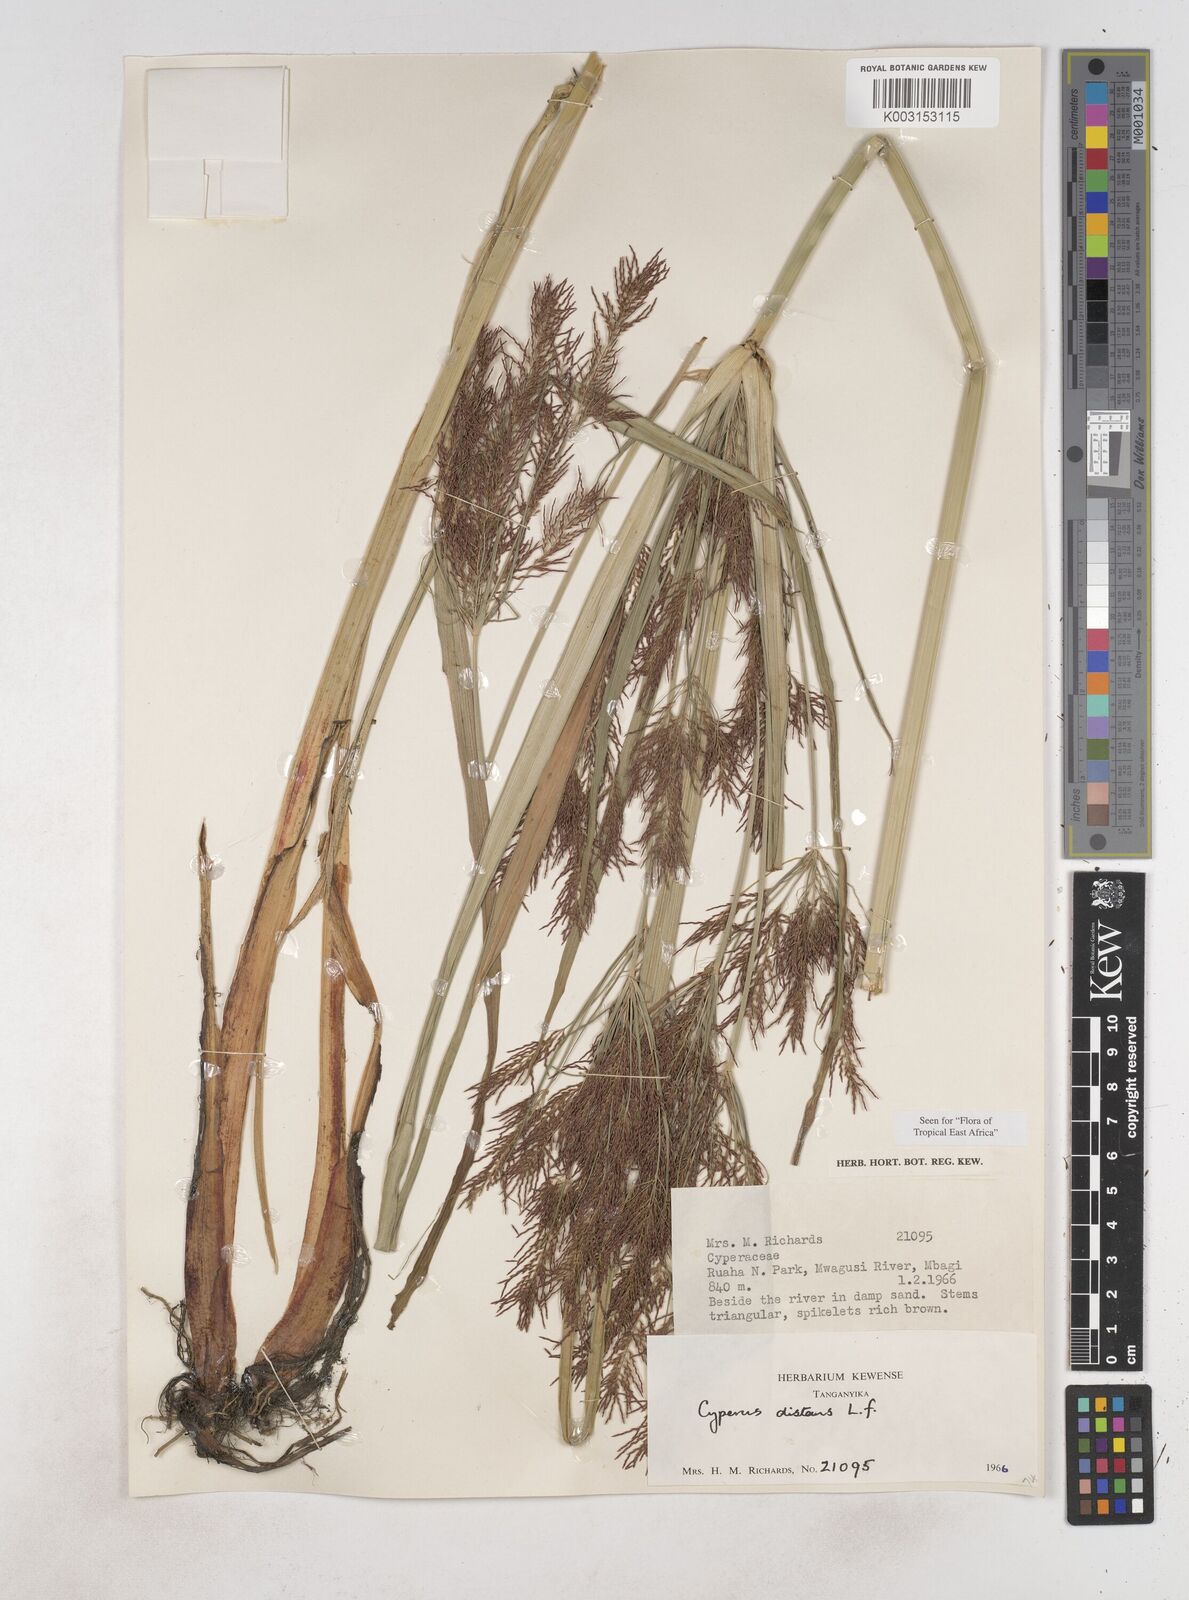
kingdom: Plantae
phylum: Tracheophyta
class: Liliopsida
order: Poales
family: Cyperaceae
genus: Cyperus
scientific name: Cyperus distans
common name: Slender cyperus
